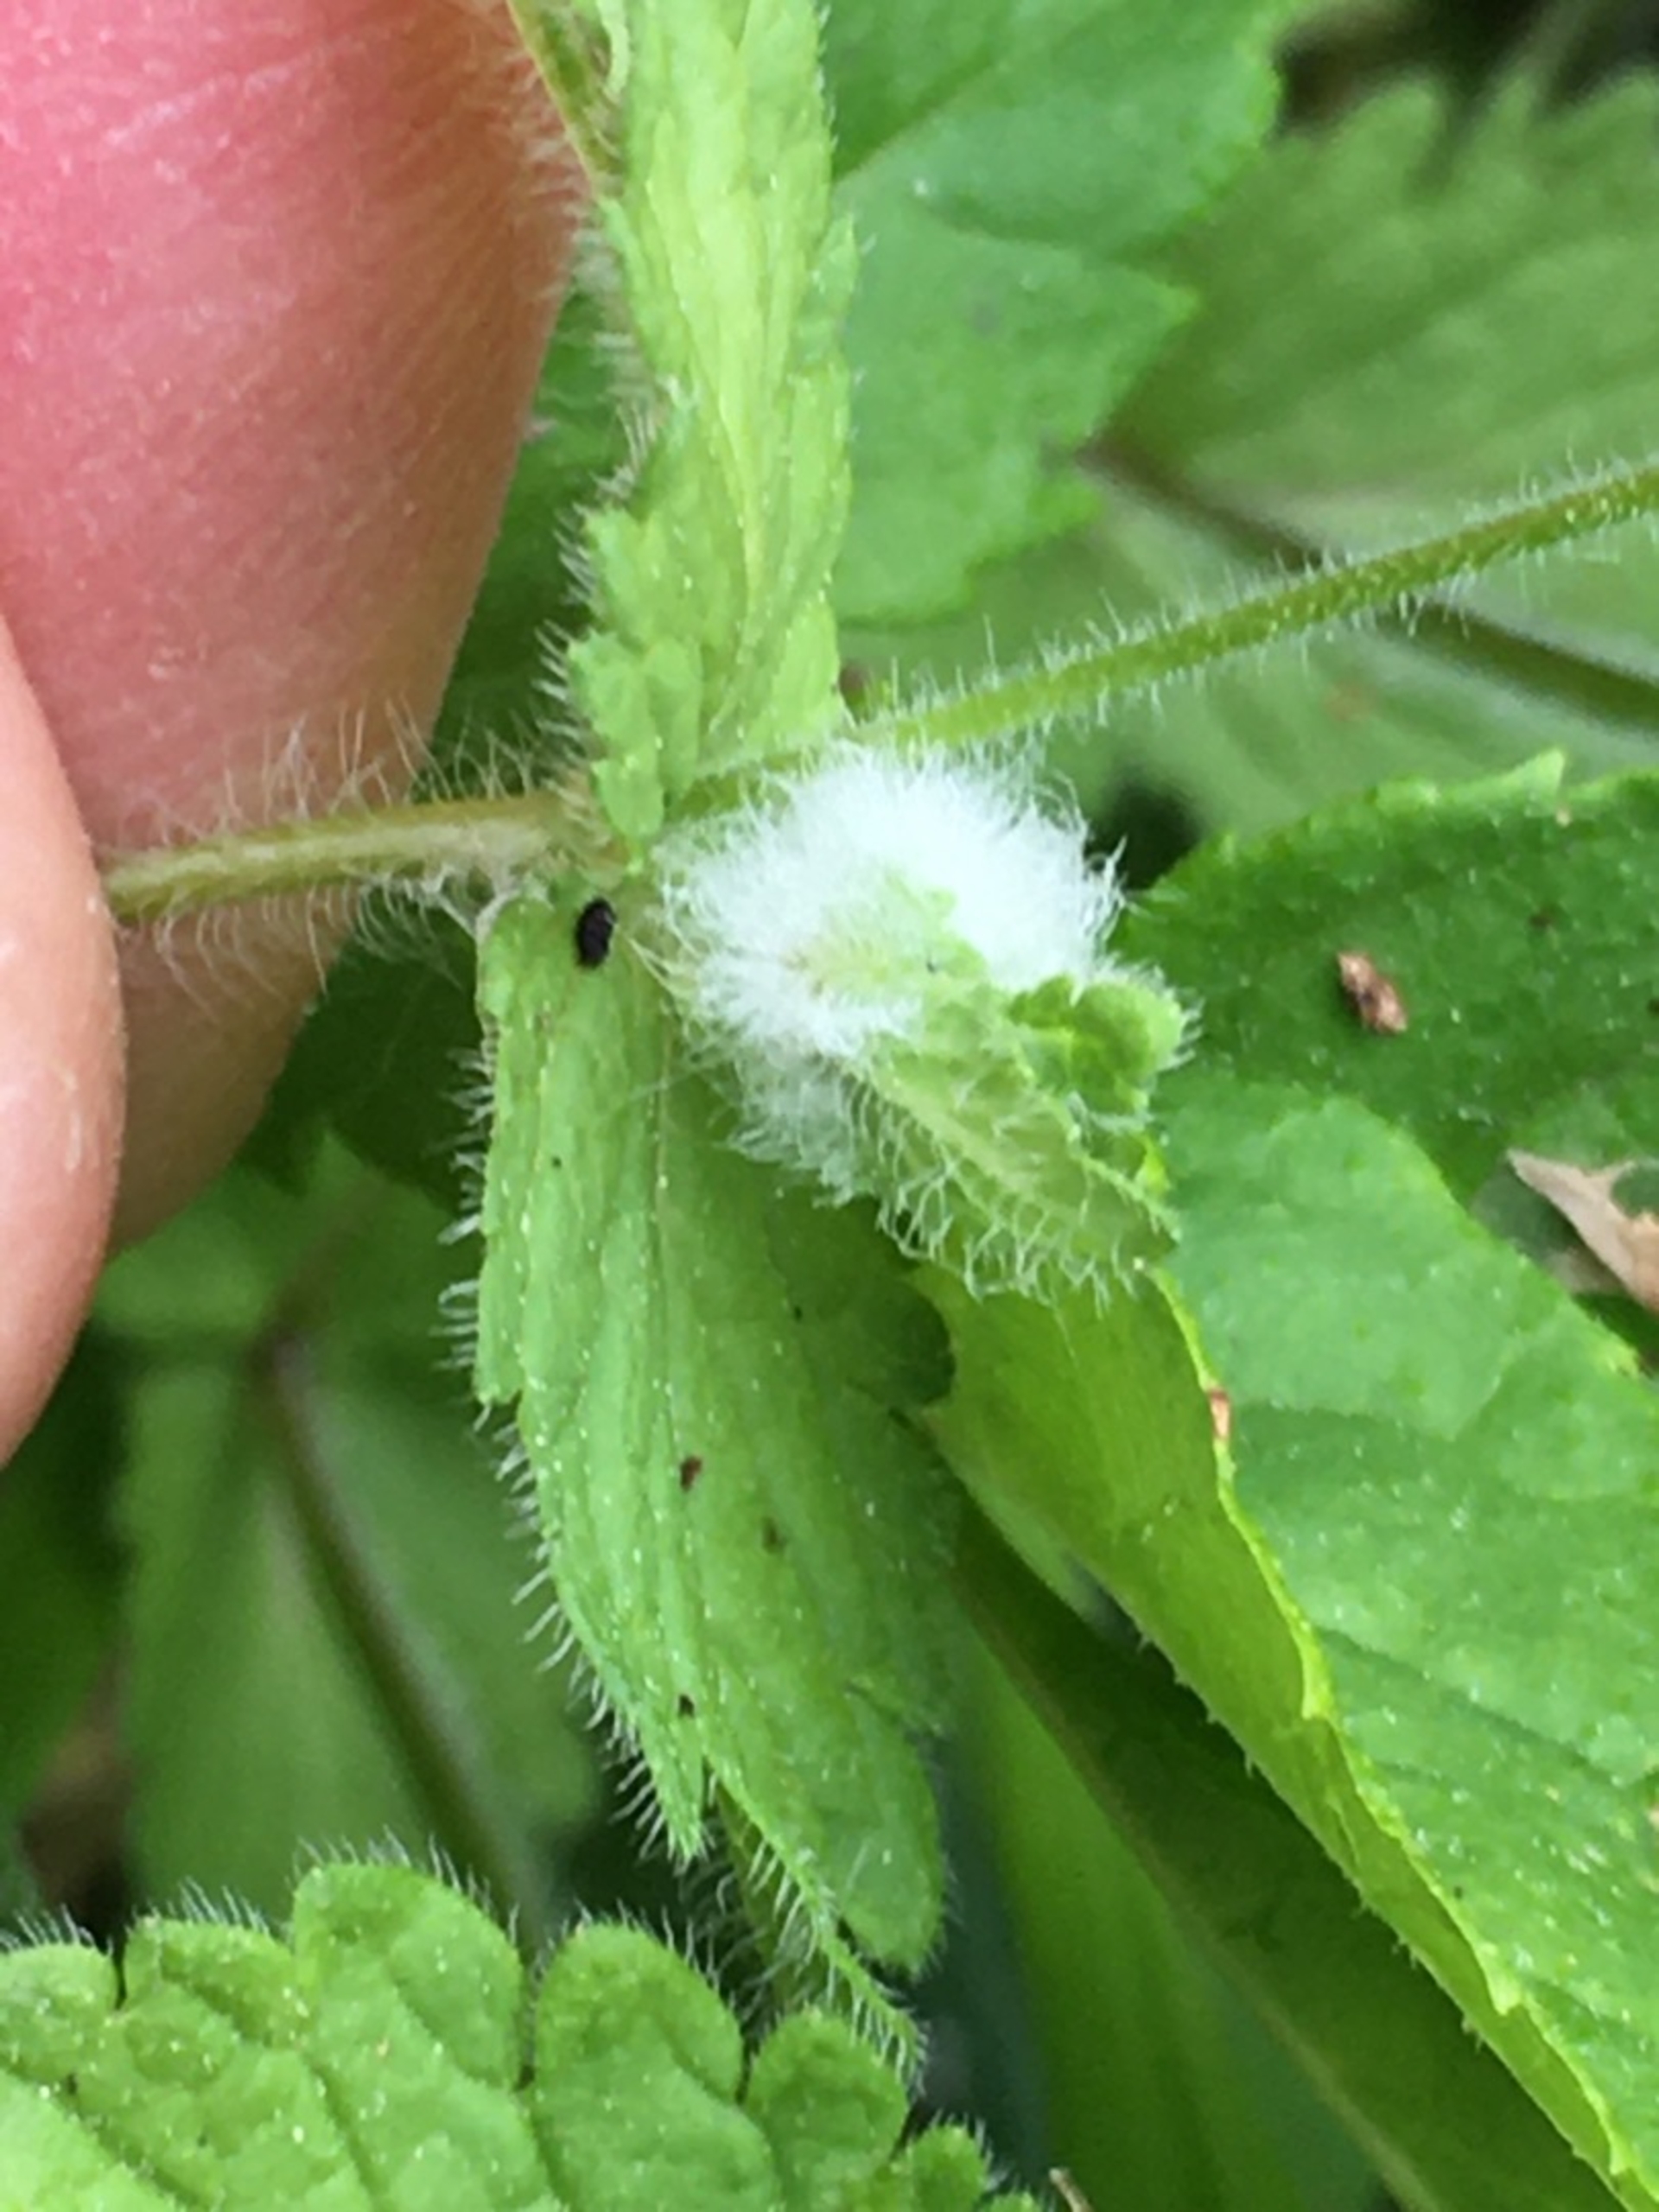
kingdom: Animalia
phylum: Arthropoda
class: Insecta
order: Diptera
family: Cecidomyiidae
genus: Jaapiella
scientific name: Jaapiella veronicae
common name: Ærenprisgalmyg
